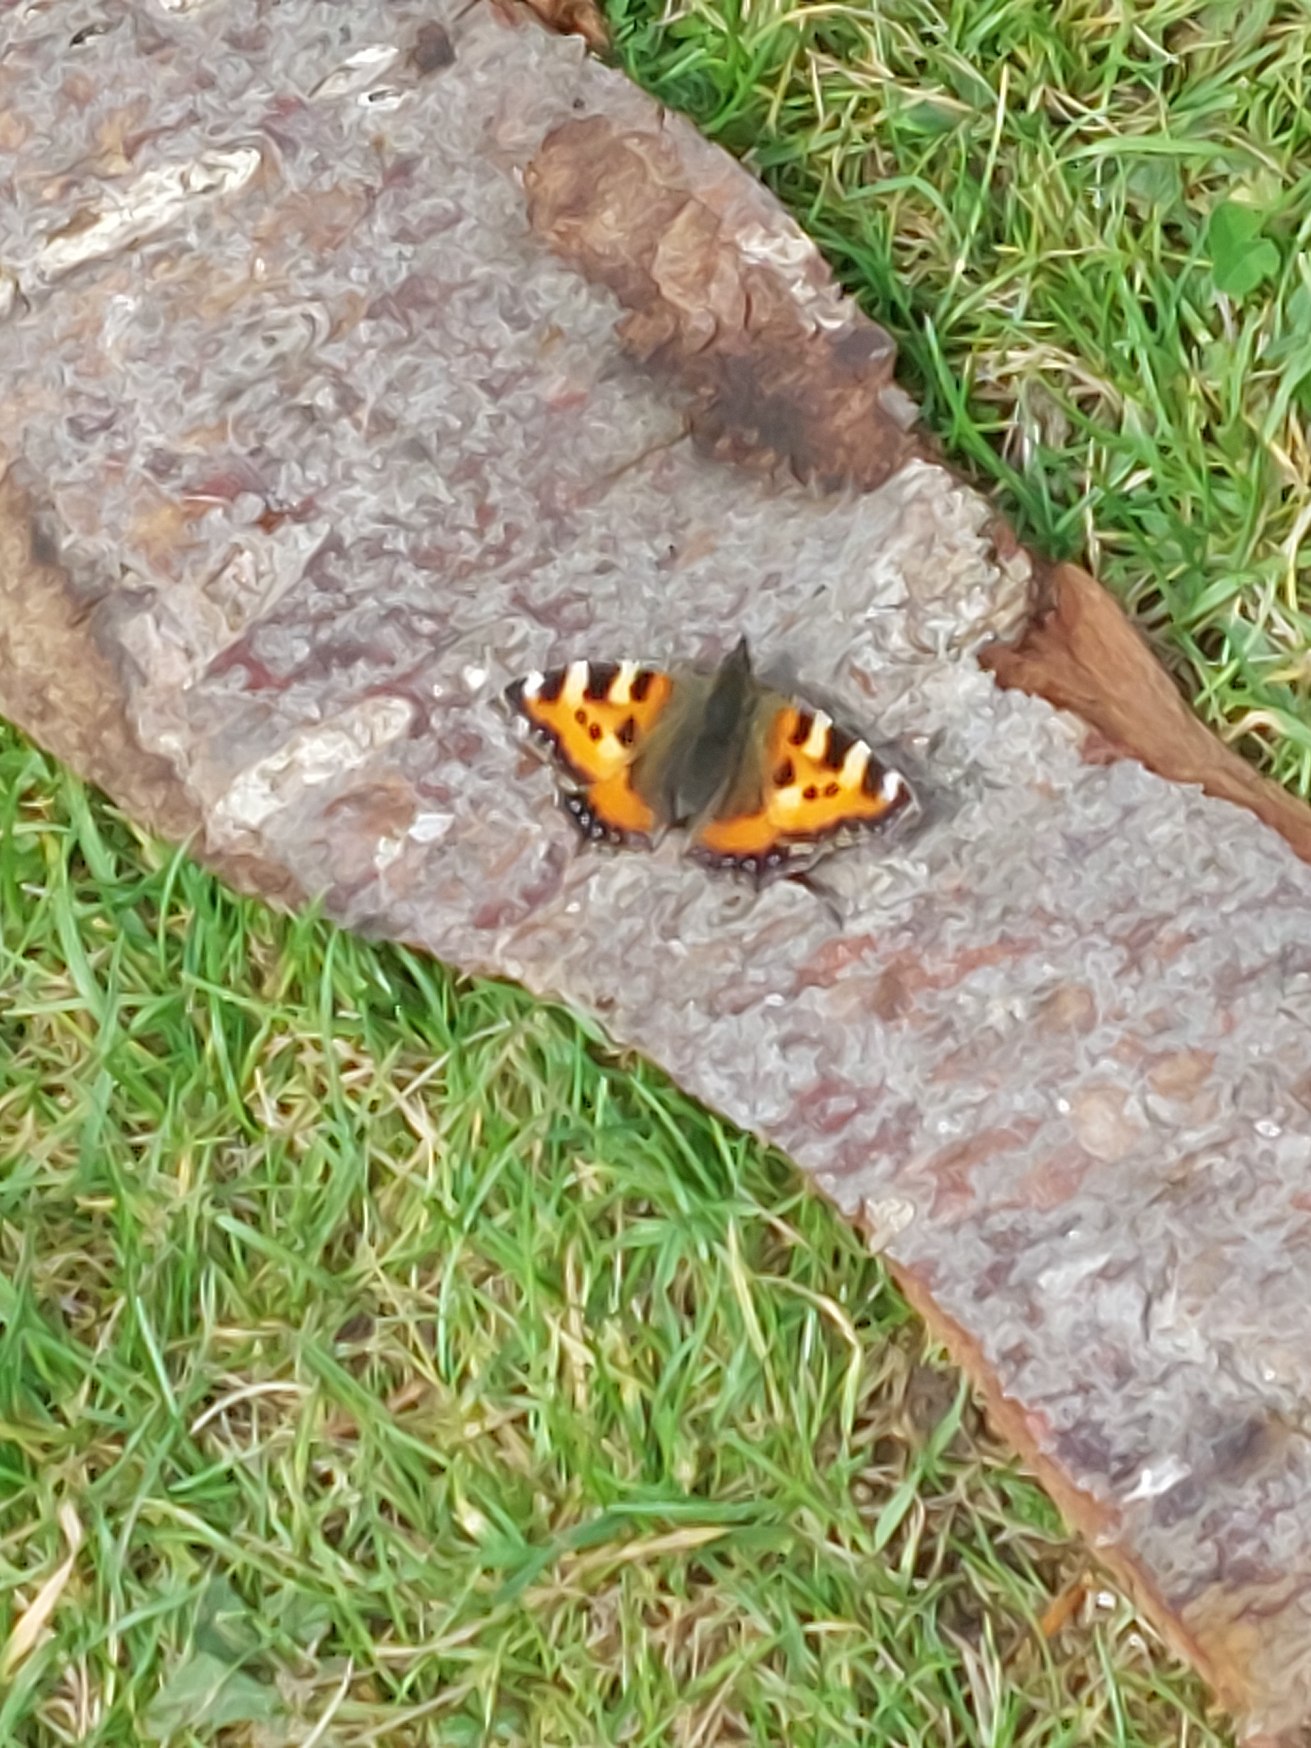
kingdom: Animalia
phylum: Arthropoda
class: Insecta
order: Lepidoptera
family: Nymphalidae
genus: Aglais
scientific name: Aglais urticae
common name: Nældens takvinge
